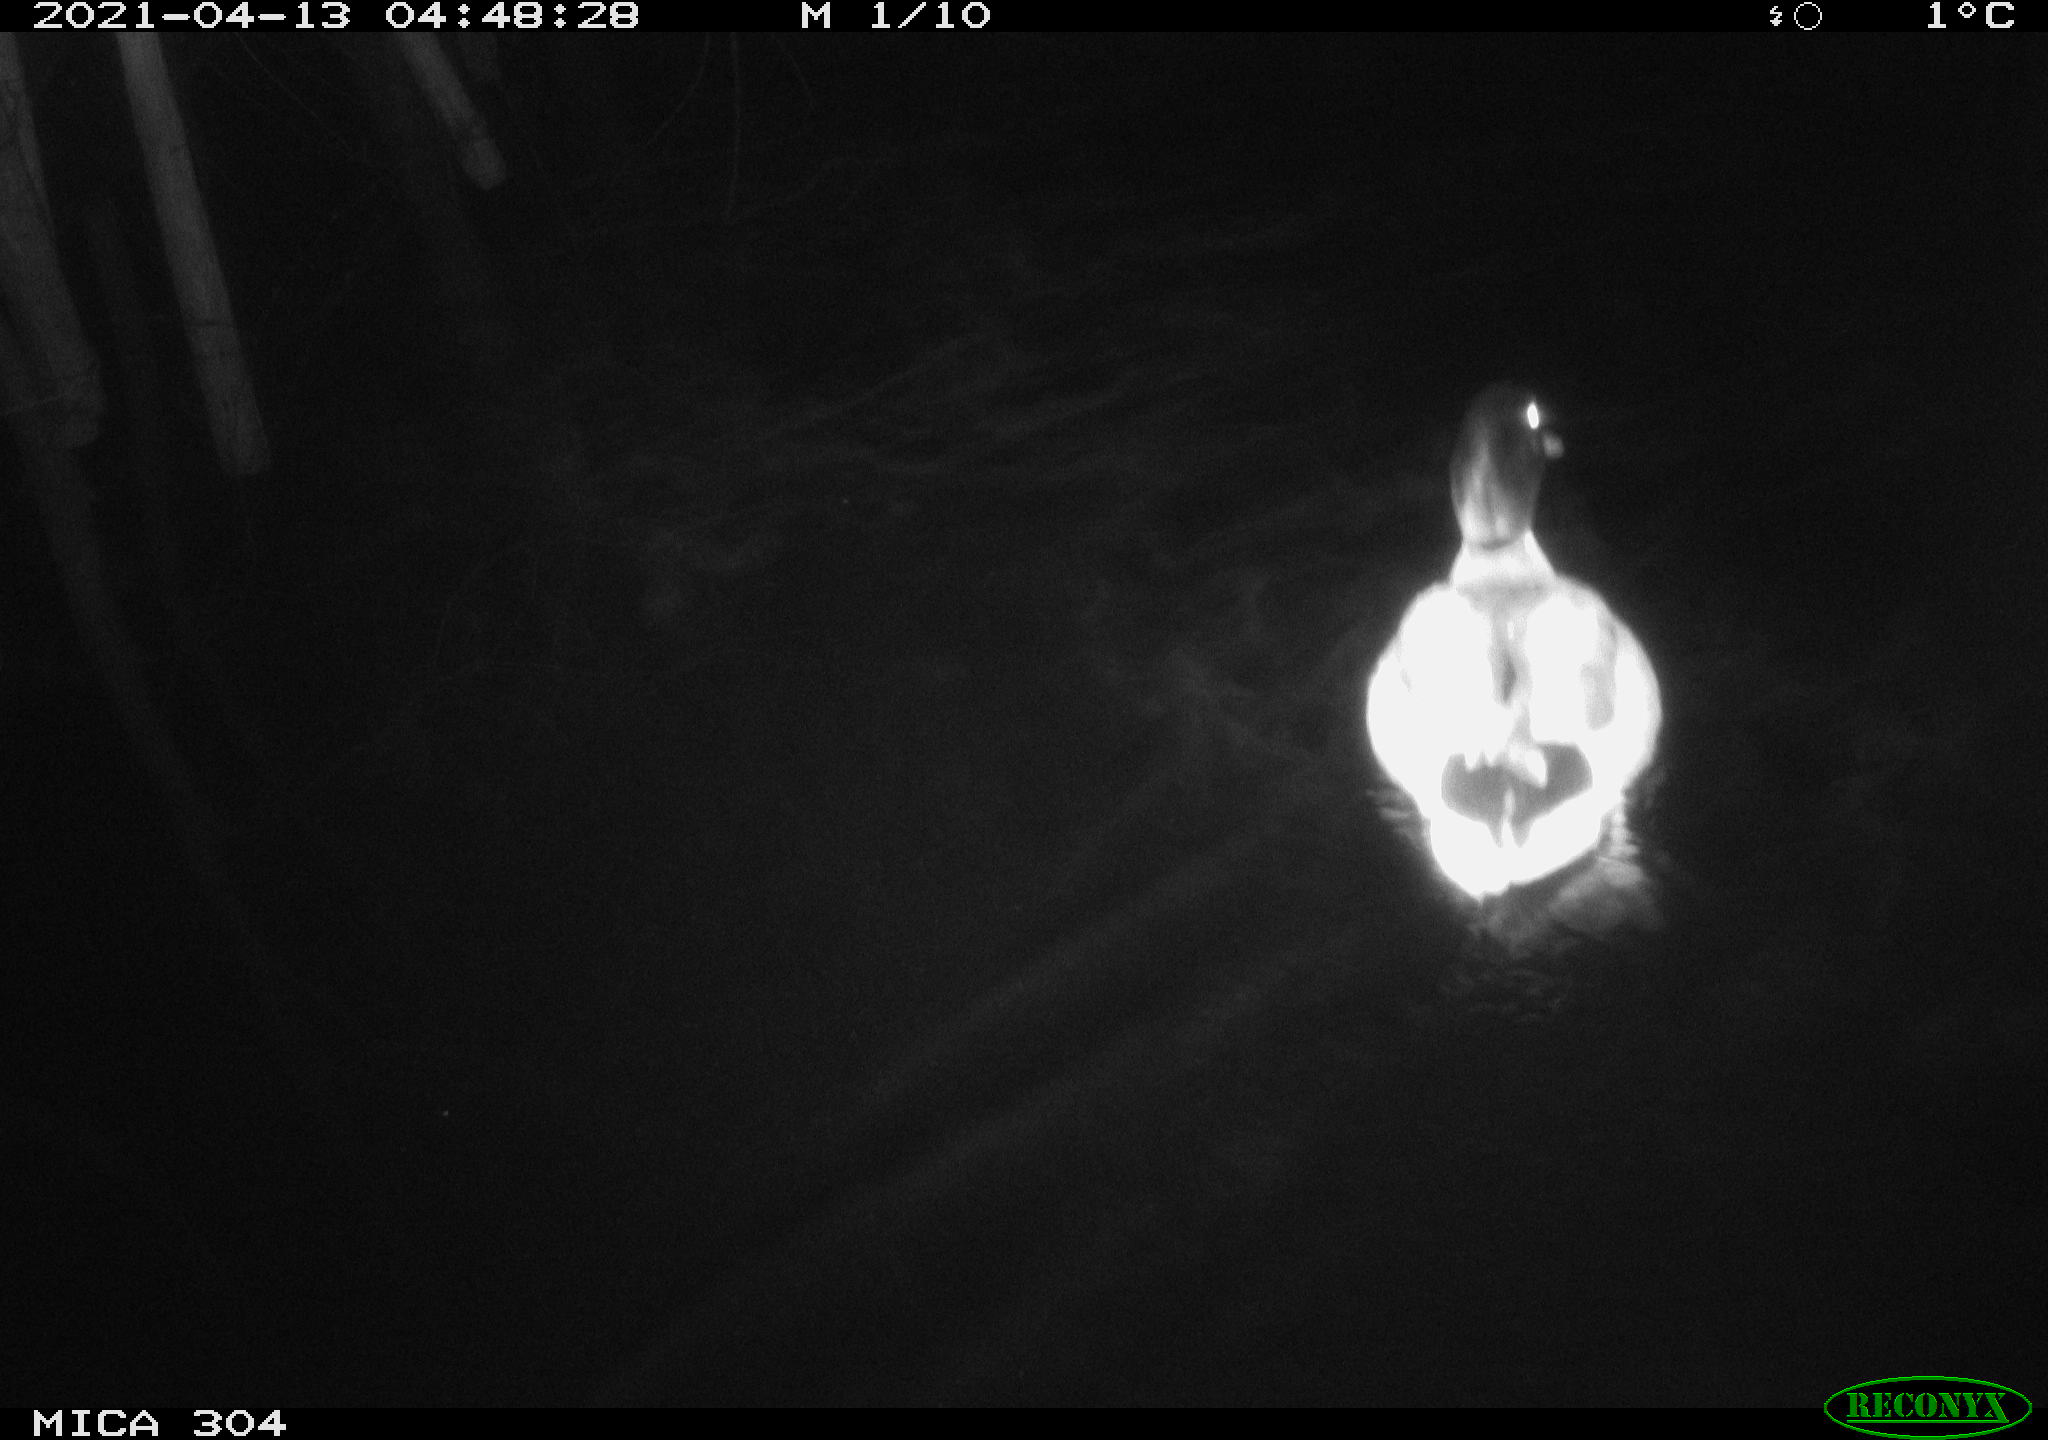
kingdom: Animalia
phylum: Chordata
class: Aves
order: Anseriformes
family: Anatidae
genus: Anas
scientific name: Anas
